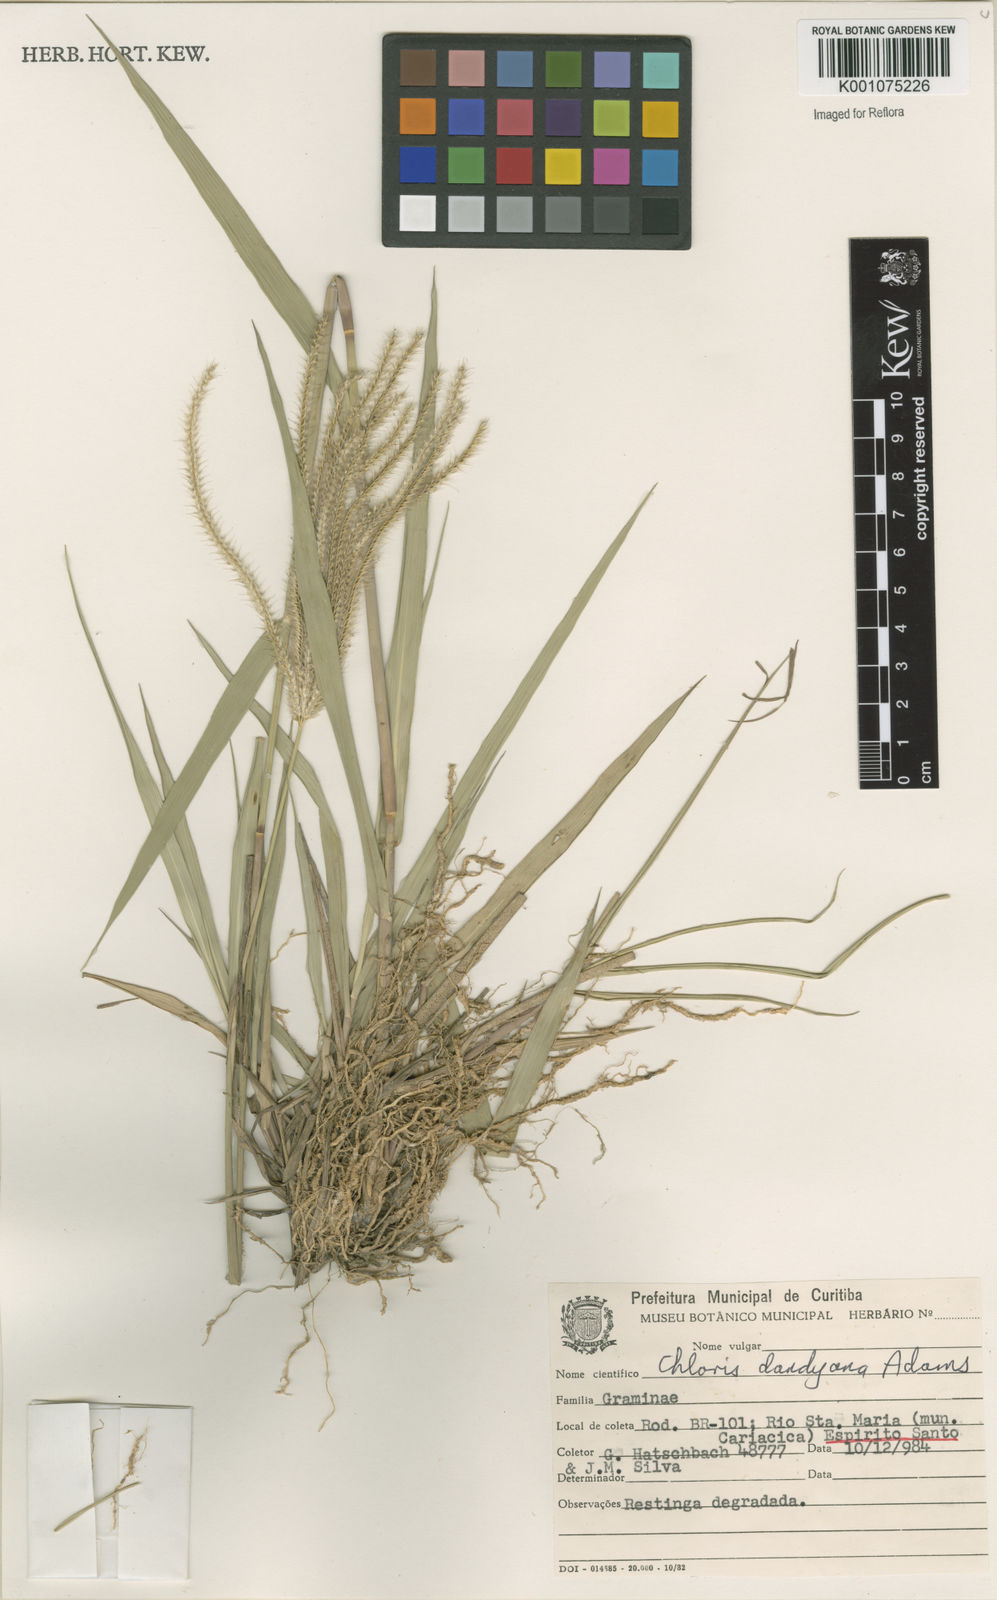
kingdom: Plantae
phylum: Tracheophyta
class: Liliopsida
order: Poales
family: Poaceae
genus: Stapfochloa
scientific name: Stapfochloa elata
